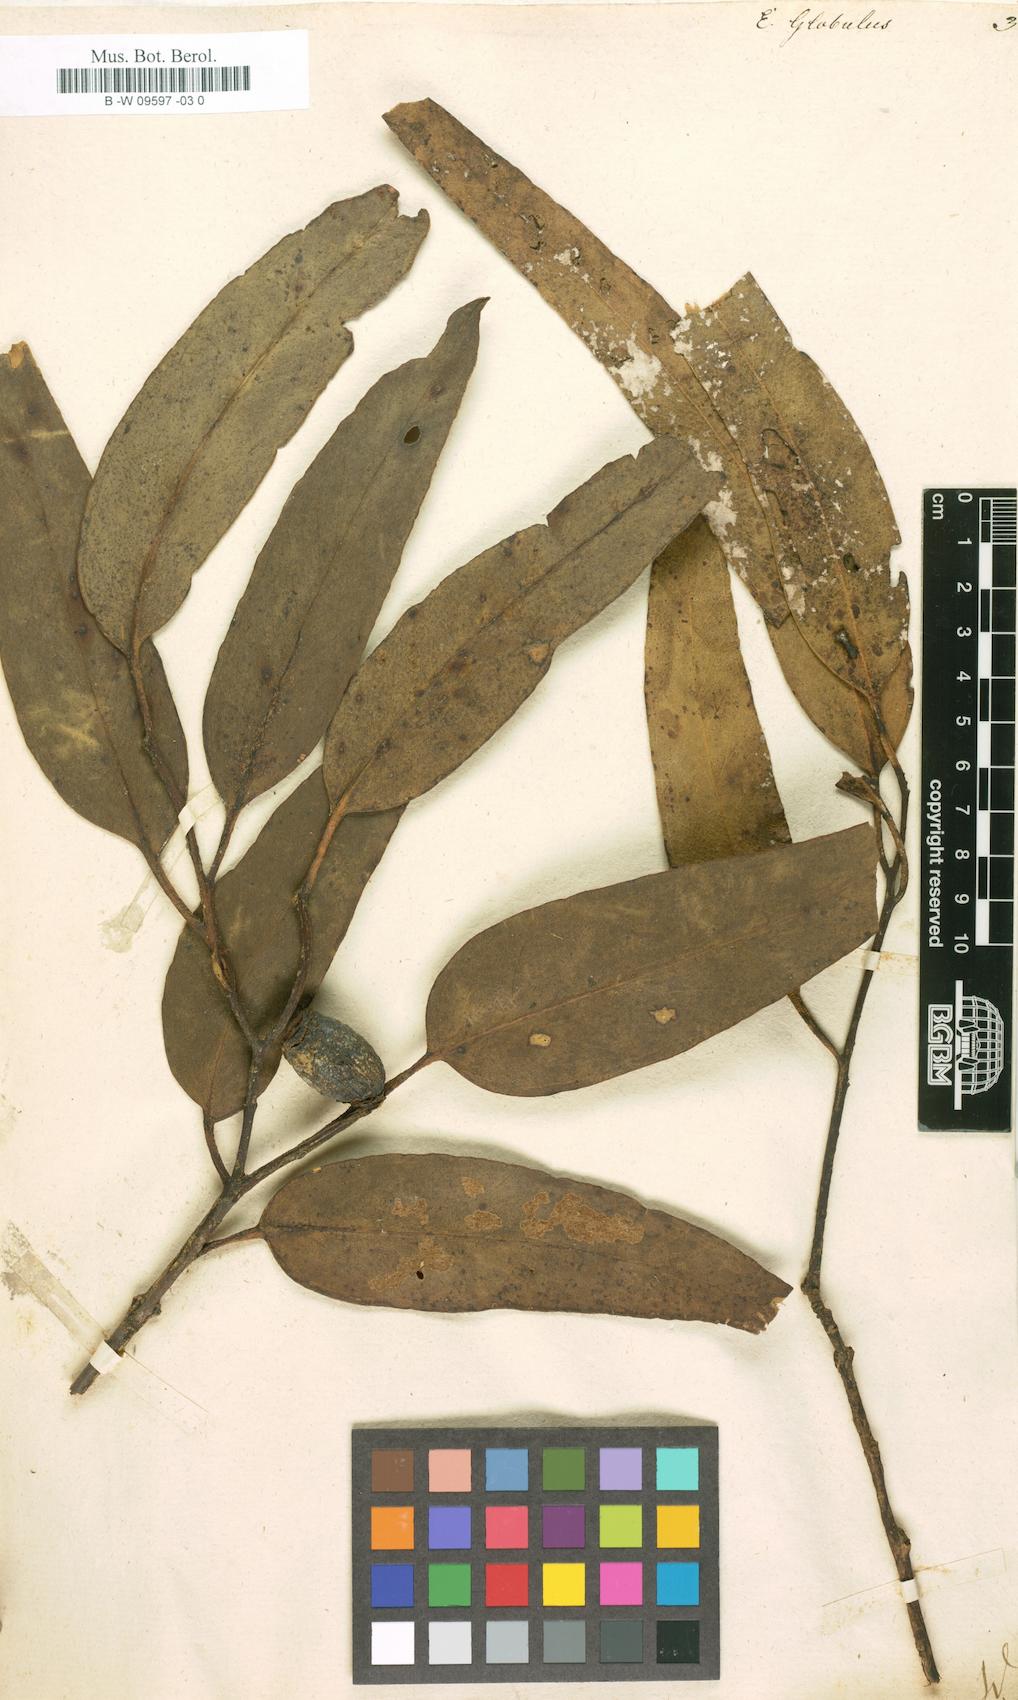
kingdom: Plantae
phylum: Tracheophyta
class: Magnoliopsida
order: Myrtales
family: Myrtaceae
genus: Eucalyptus
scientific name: Eucalyptus globulus
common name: Southern blue-gum
